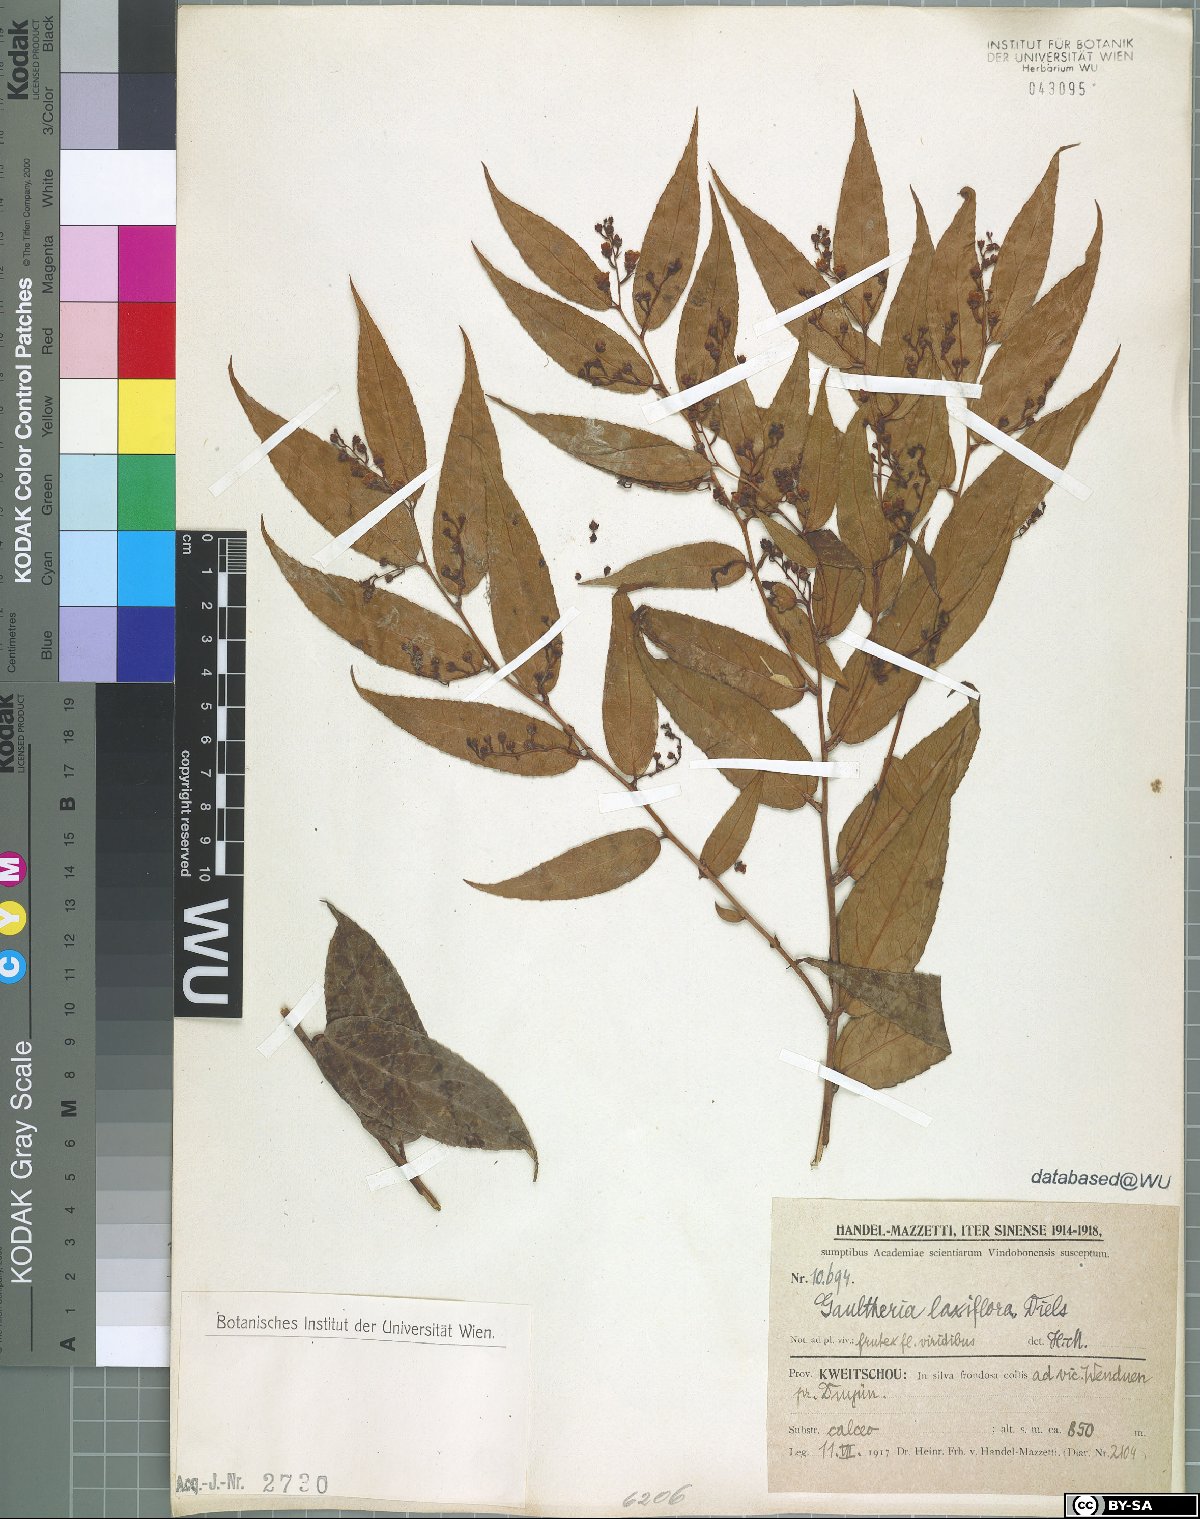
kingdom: Plantae
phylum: Tracheophyta
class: Magnoliopsida
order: Ericales
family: Ericaceae
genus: Gaultheria
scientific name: Gaultheria leucocarpa
